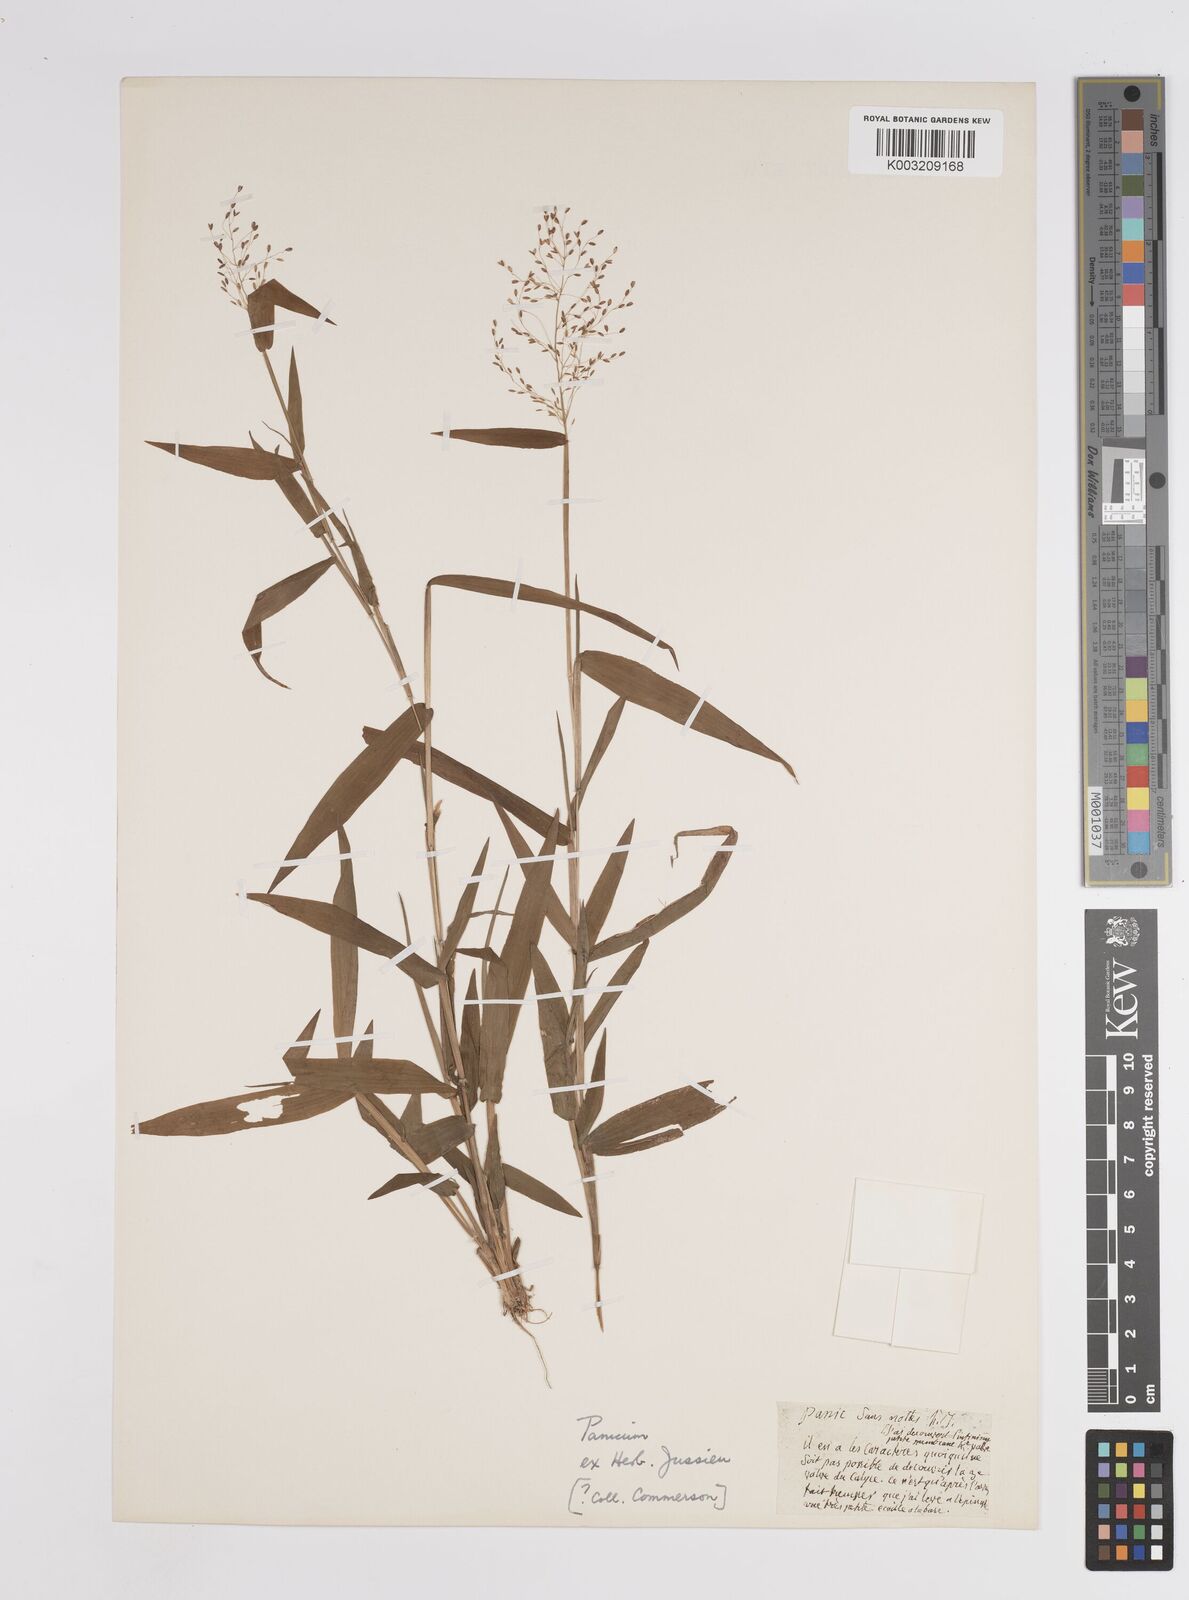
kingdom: Plantae
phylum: Tracheophyta
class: Liliopsida
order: Poales
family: Poaceae
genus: Panicum
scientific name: Panicum
